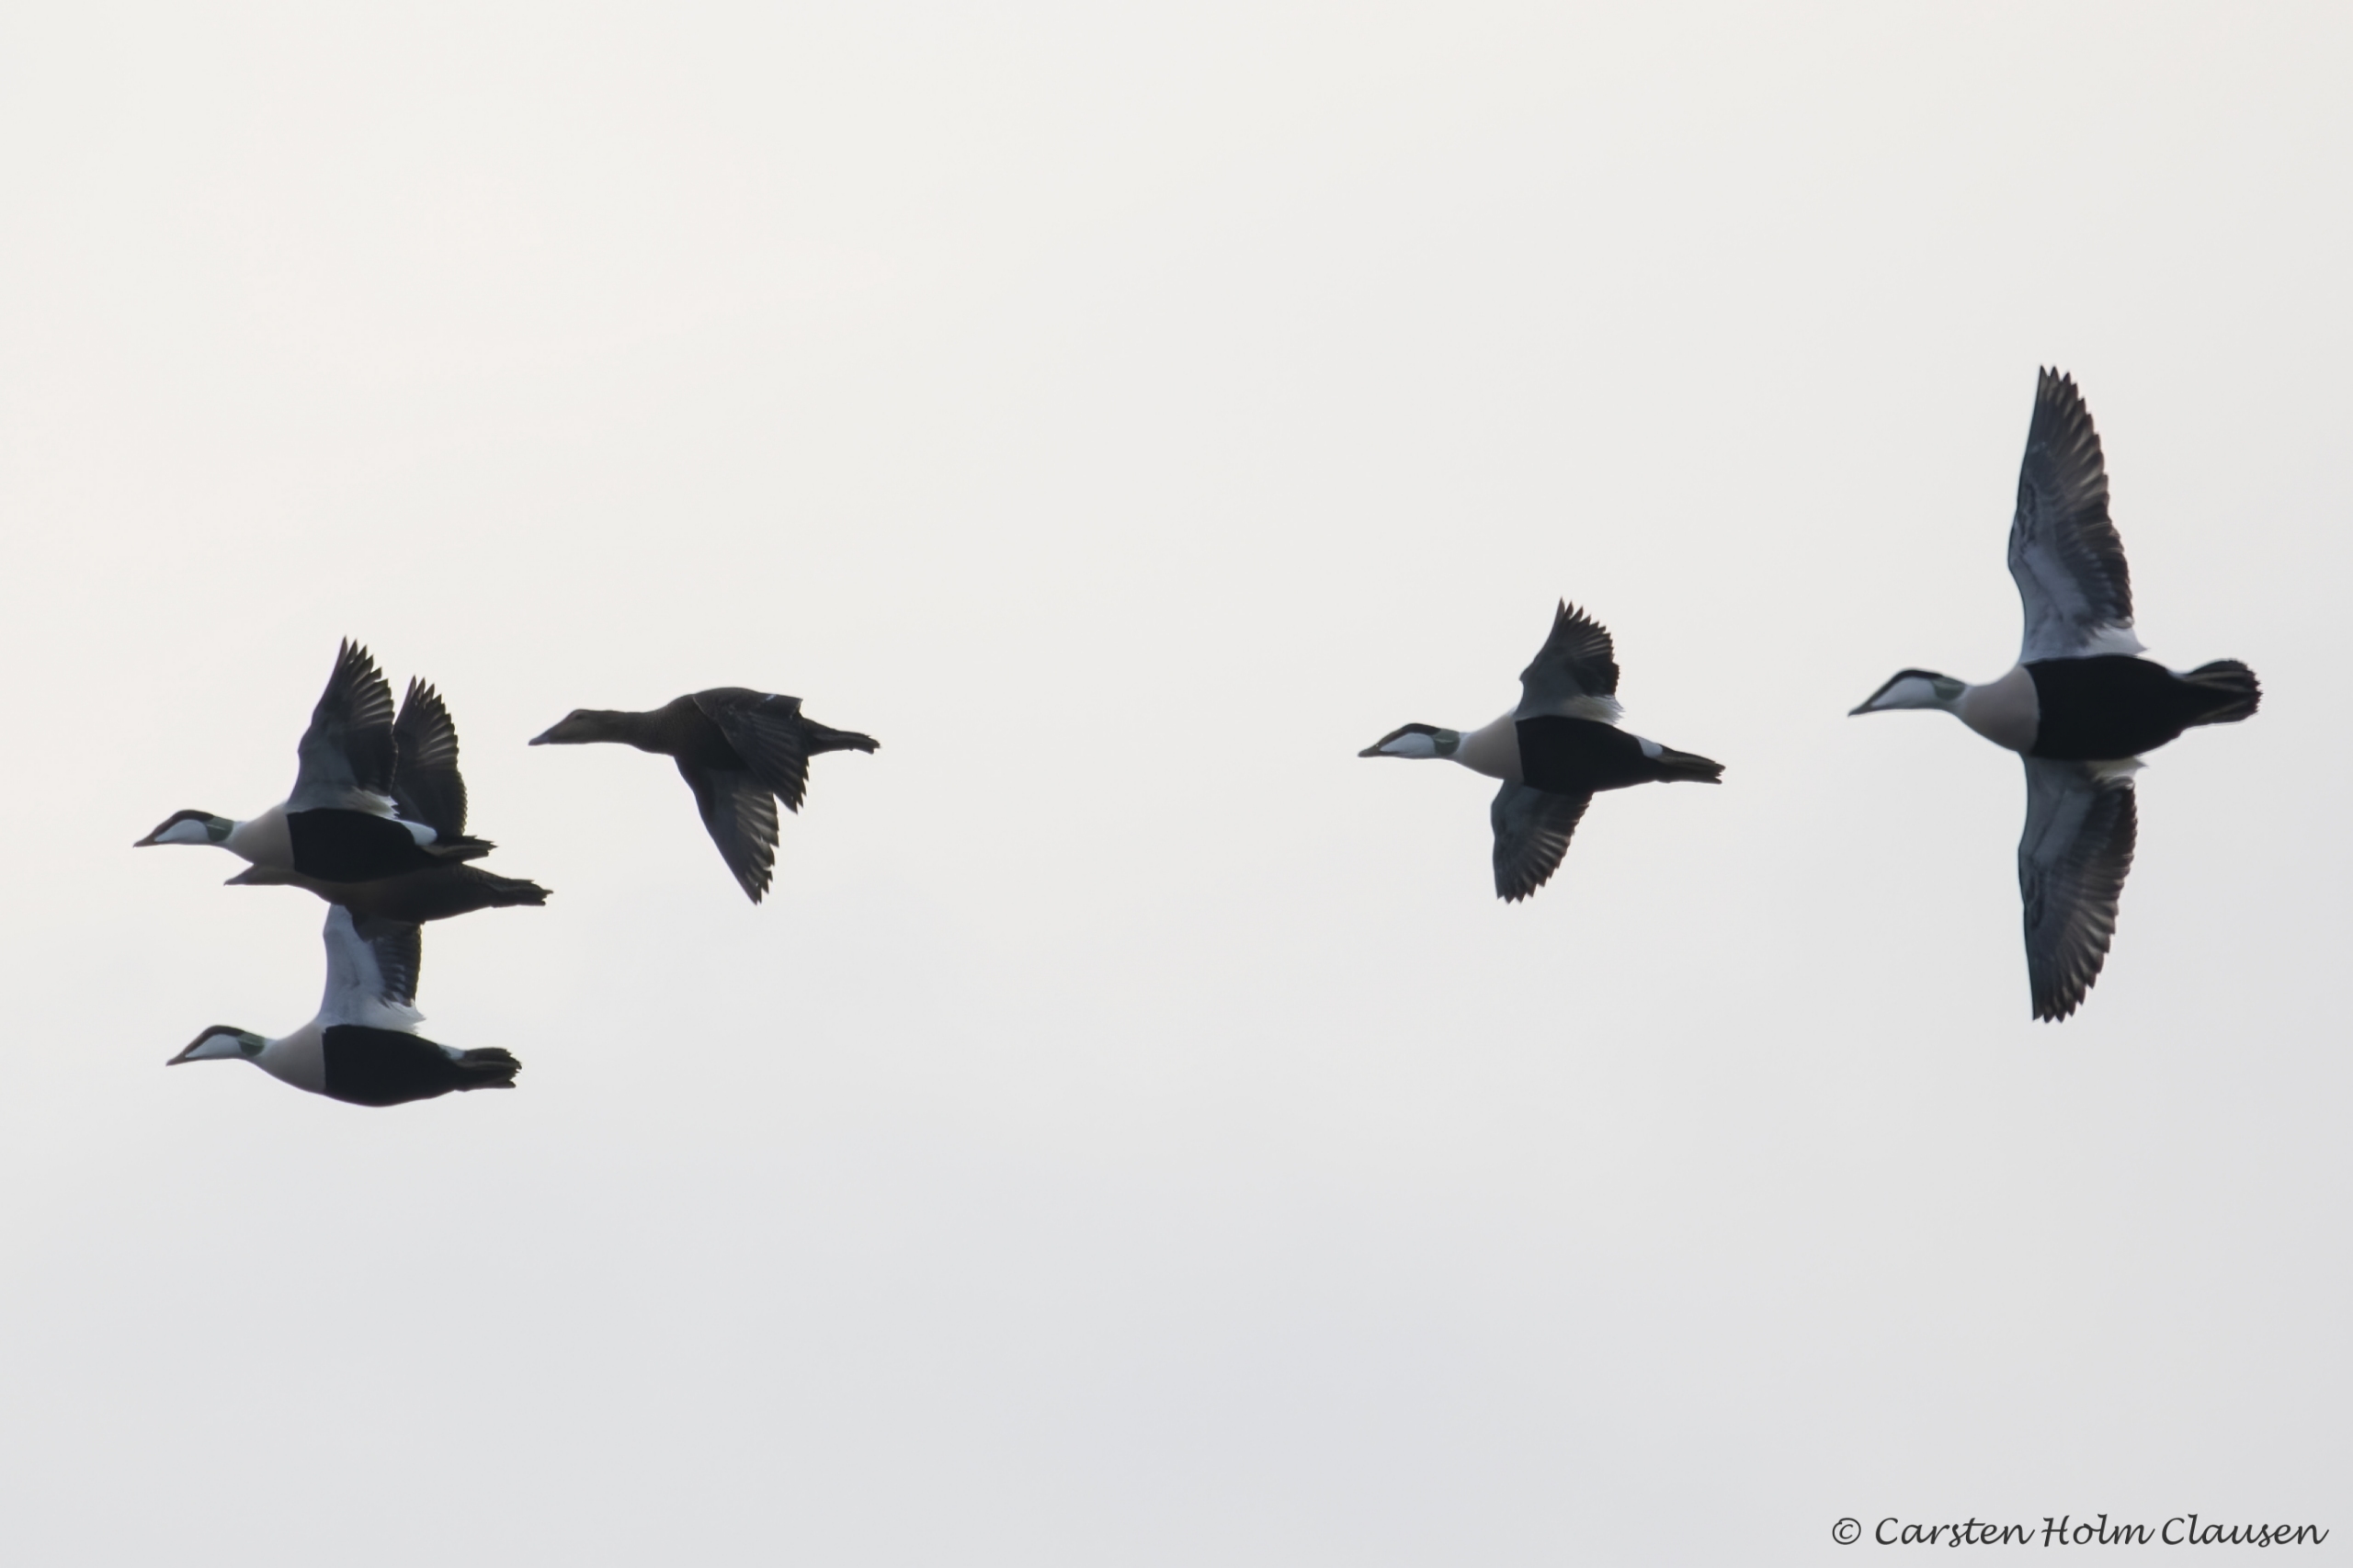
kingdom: Animalia
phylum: Chordata
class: Aves
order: Anseriformes
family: Anatidae
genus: Somateria
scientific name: Somateria mollissima
